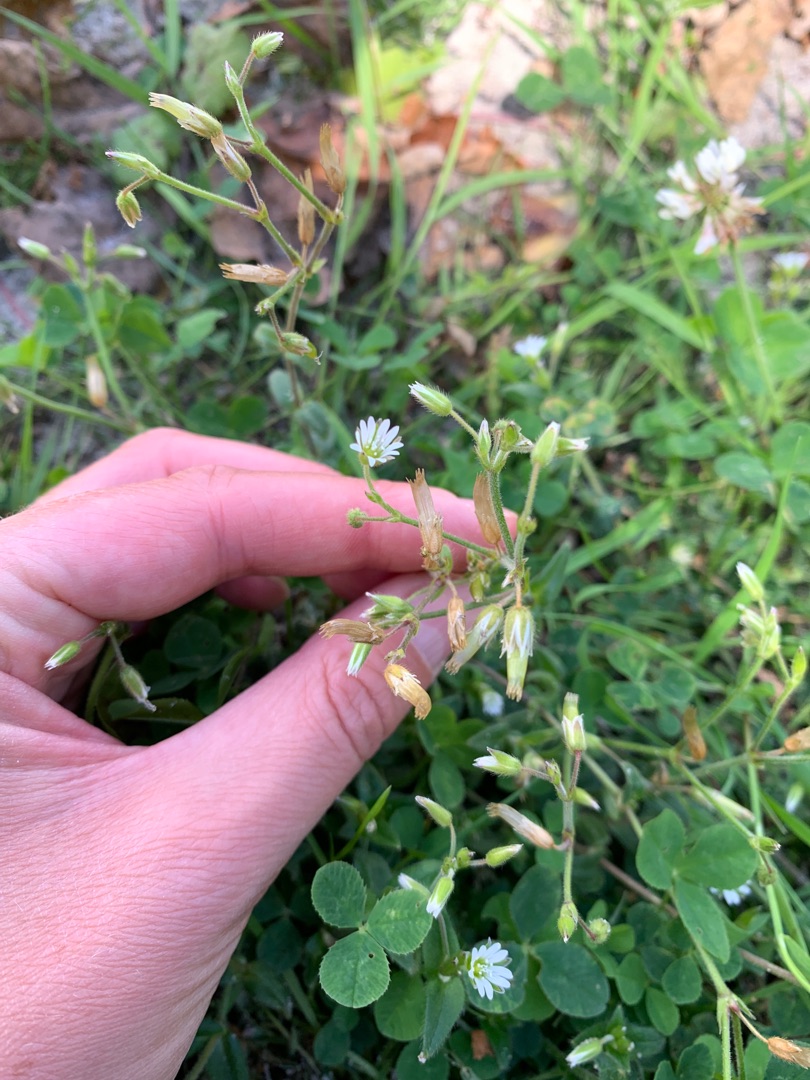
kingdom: Plantae
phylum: Tracheophyta
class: Magnoliopsida
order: Caryophyllales
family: Caryophyllaceae
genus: Cerastium
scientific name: Cerastium fontanum
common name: Almindelig hønsetarm
